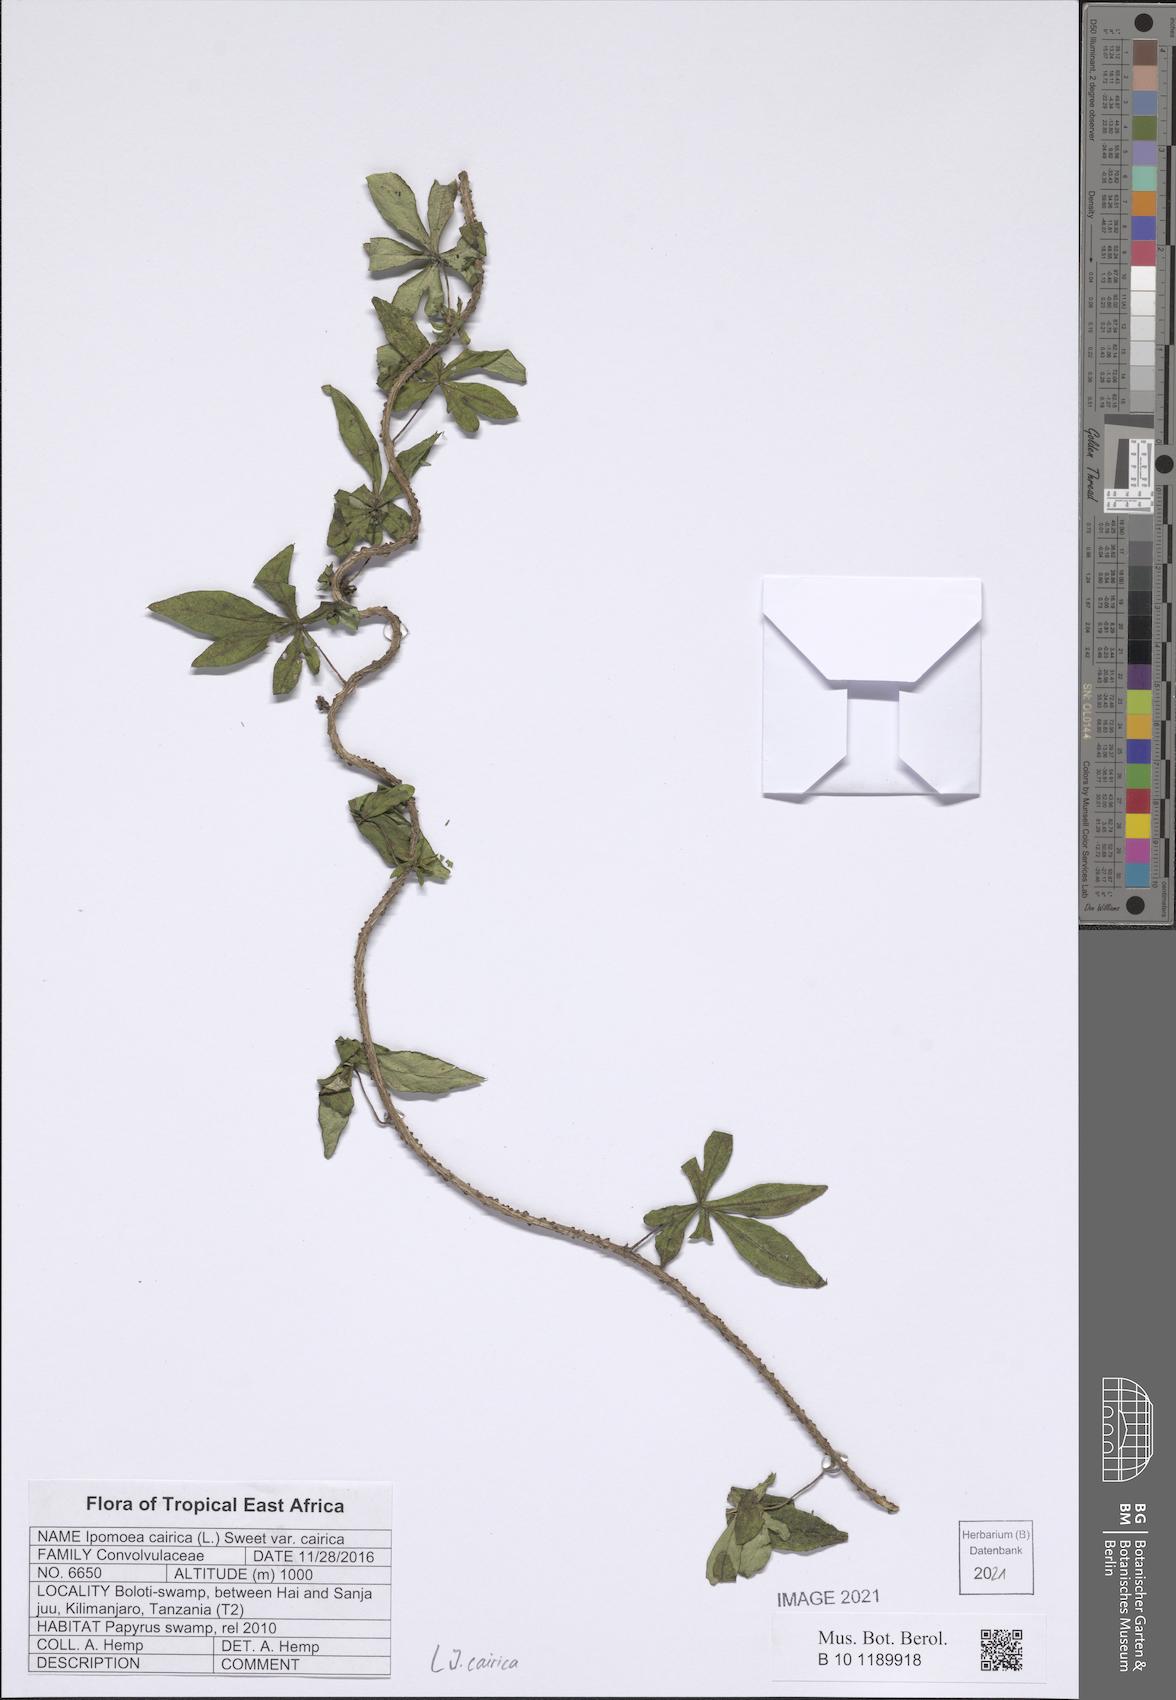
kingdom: Plantae
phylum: Tracheophyta
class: Magnoliopsida
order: Solanales
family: Convolvulaceae
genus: Ipomoea
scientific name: Ipomoea cairica
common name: Mile a minute vine
